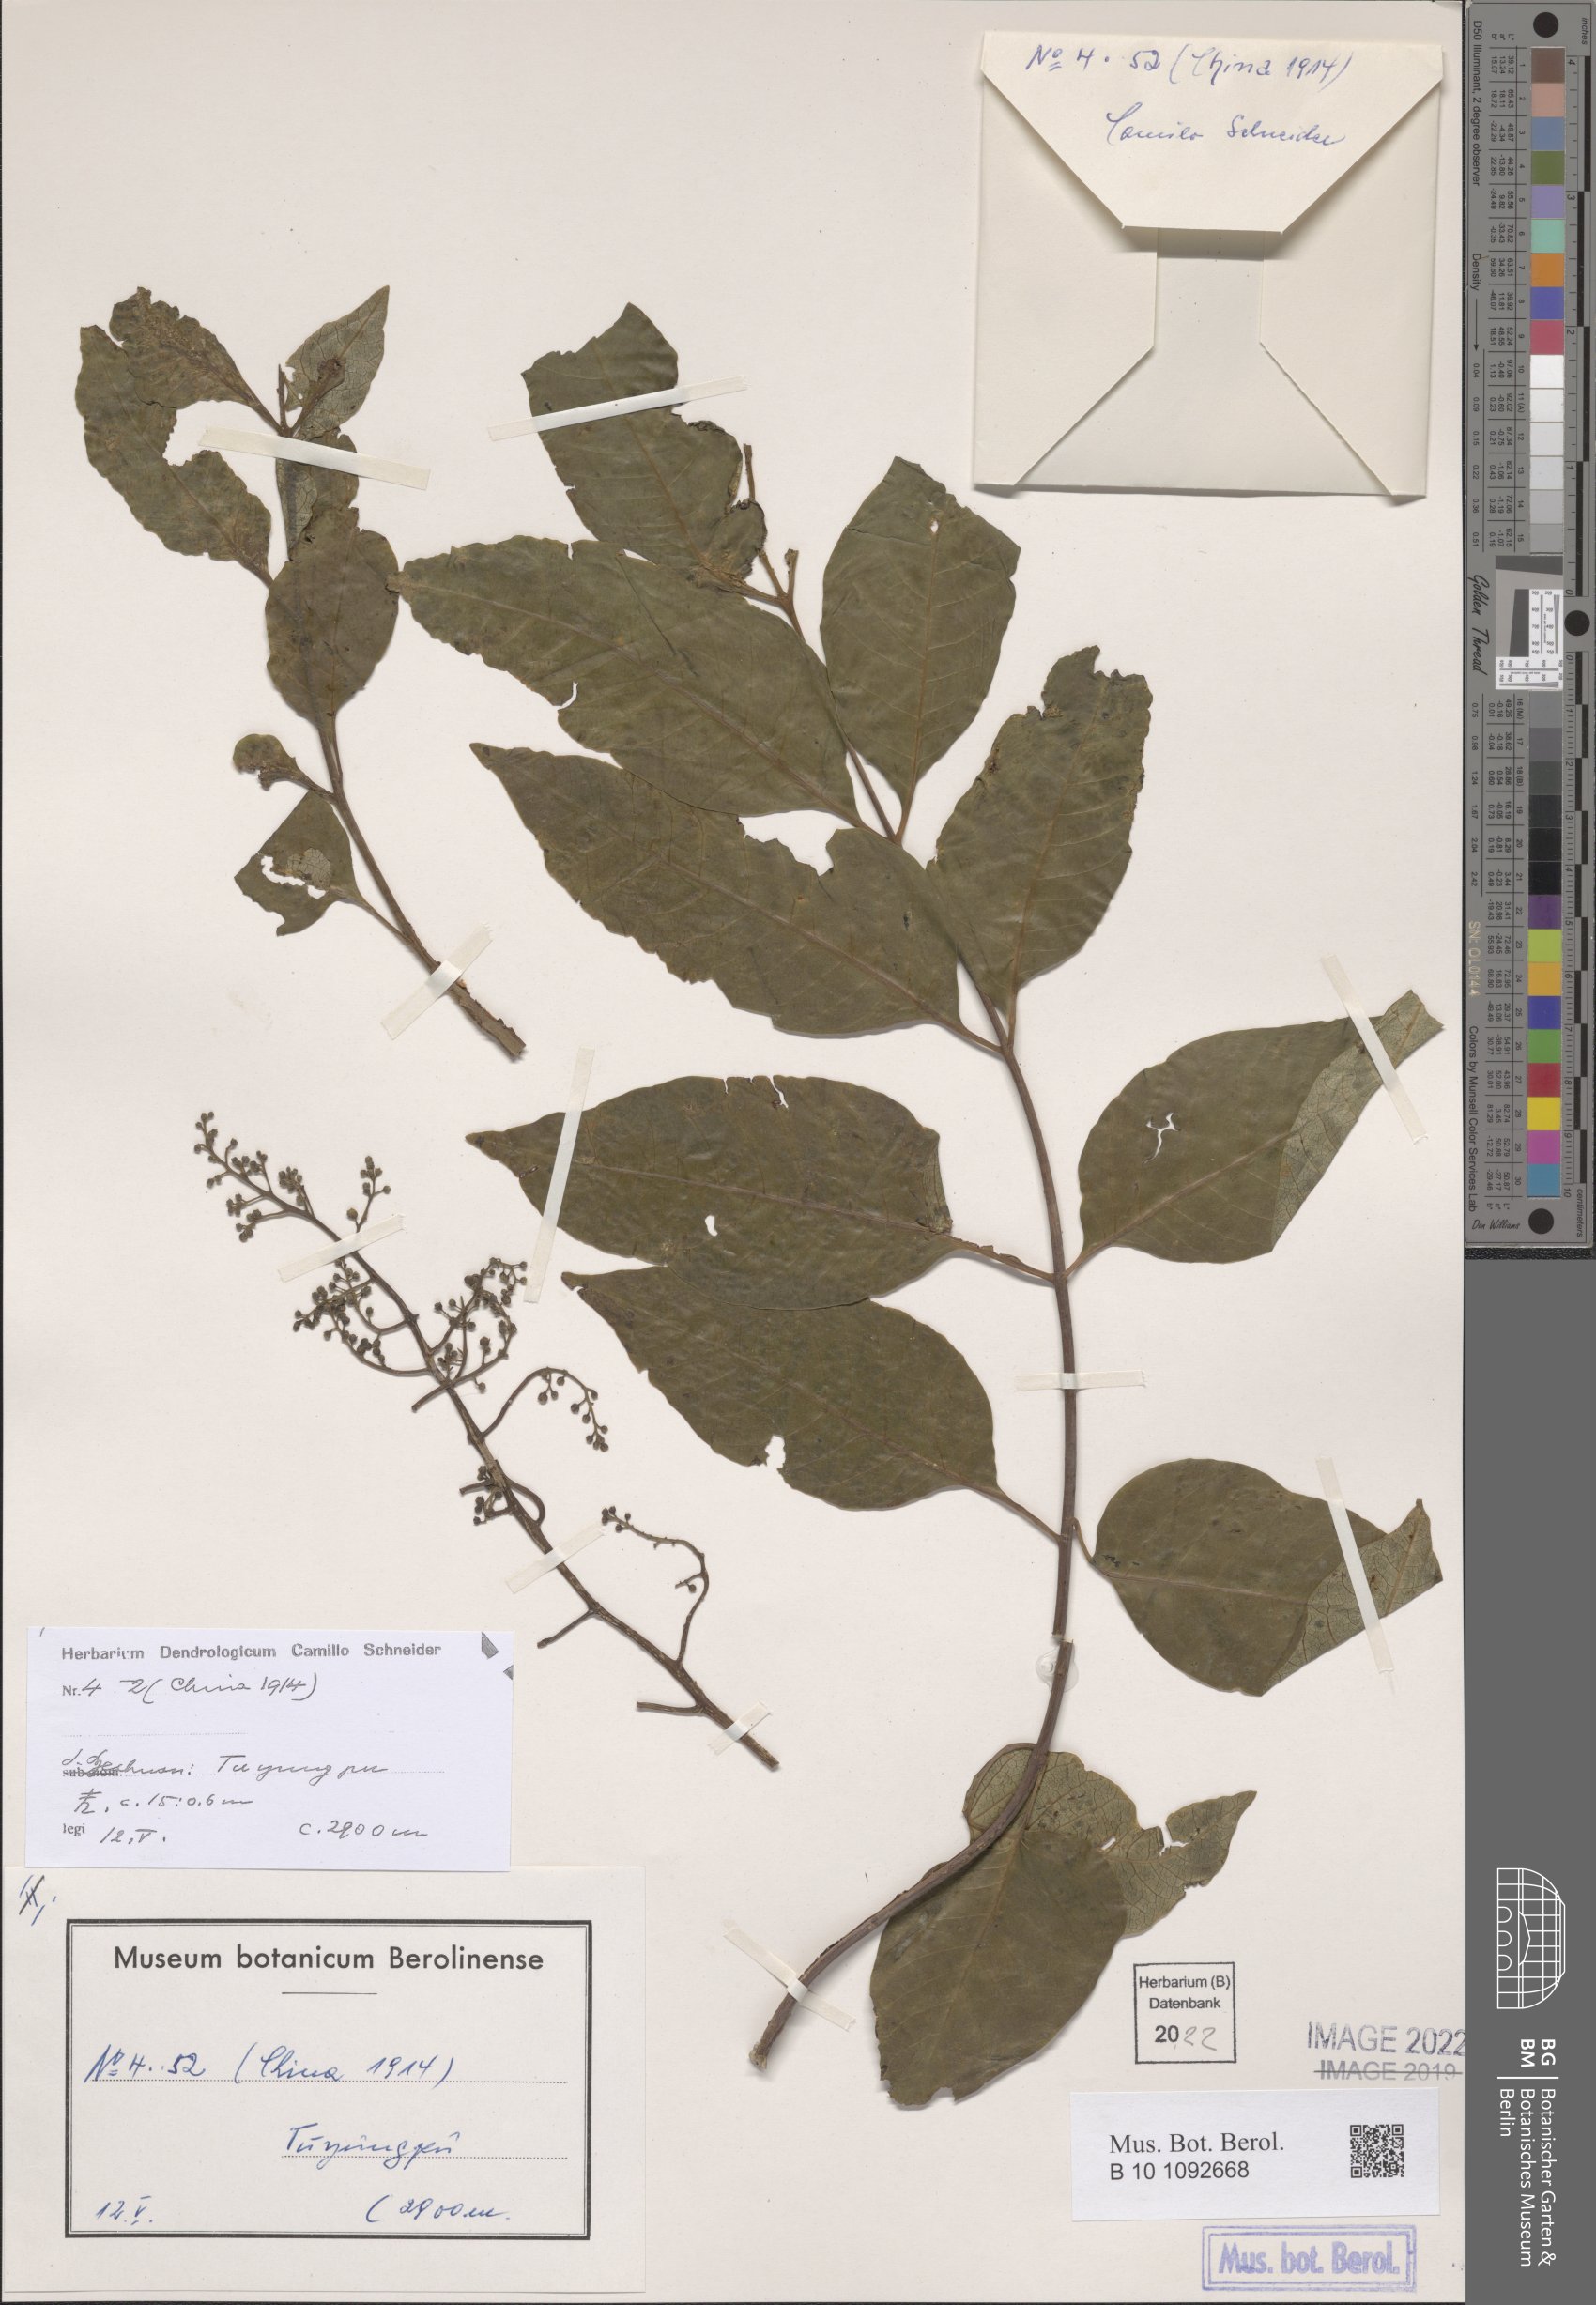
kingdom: Plantae
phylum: Tracheophyta
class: Magnoliopsida
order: Sapindales
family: Anacardiaceae
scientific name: Anacardiaceae
